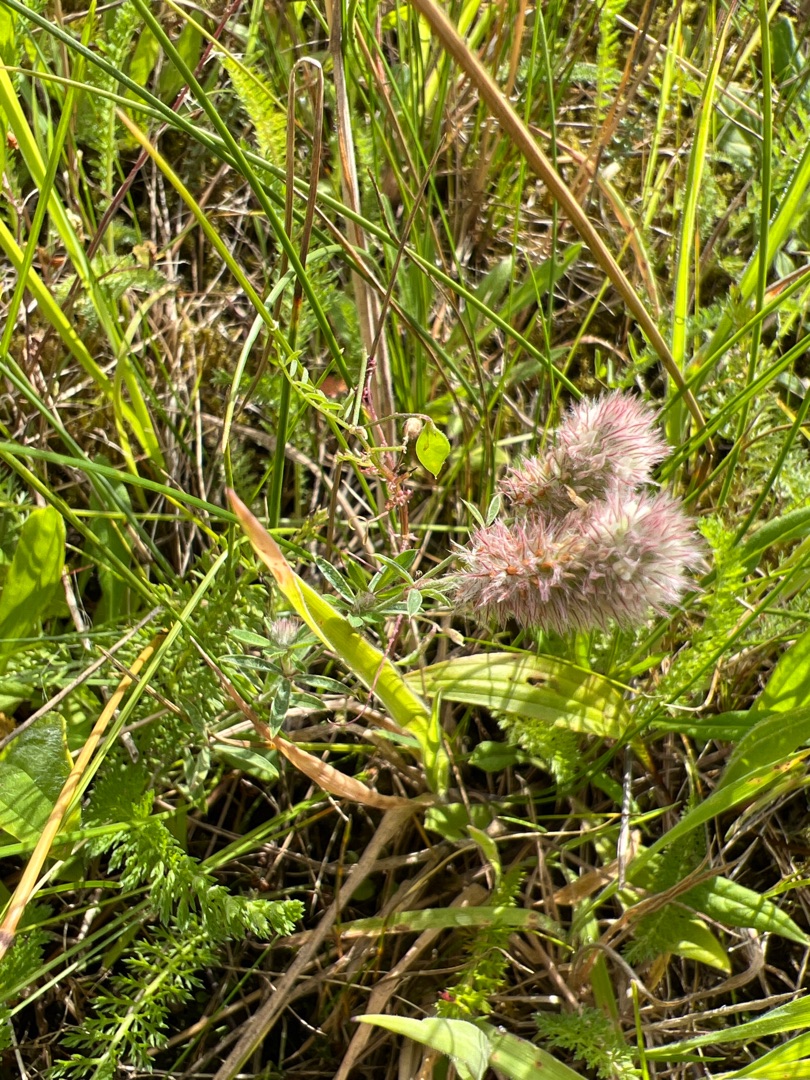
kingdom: Plantae
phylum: Tracheophyta
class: Magnoliopsida
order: Fabales
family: Fabaceae
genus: Trifolium
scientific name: Trifolium arvense
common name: Hare-kløver
